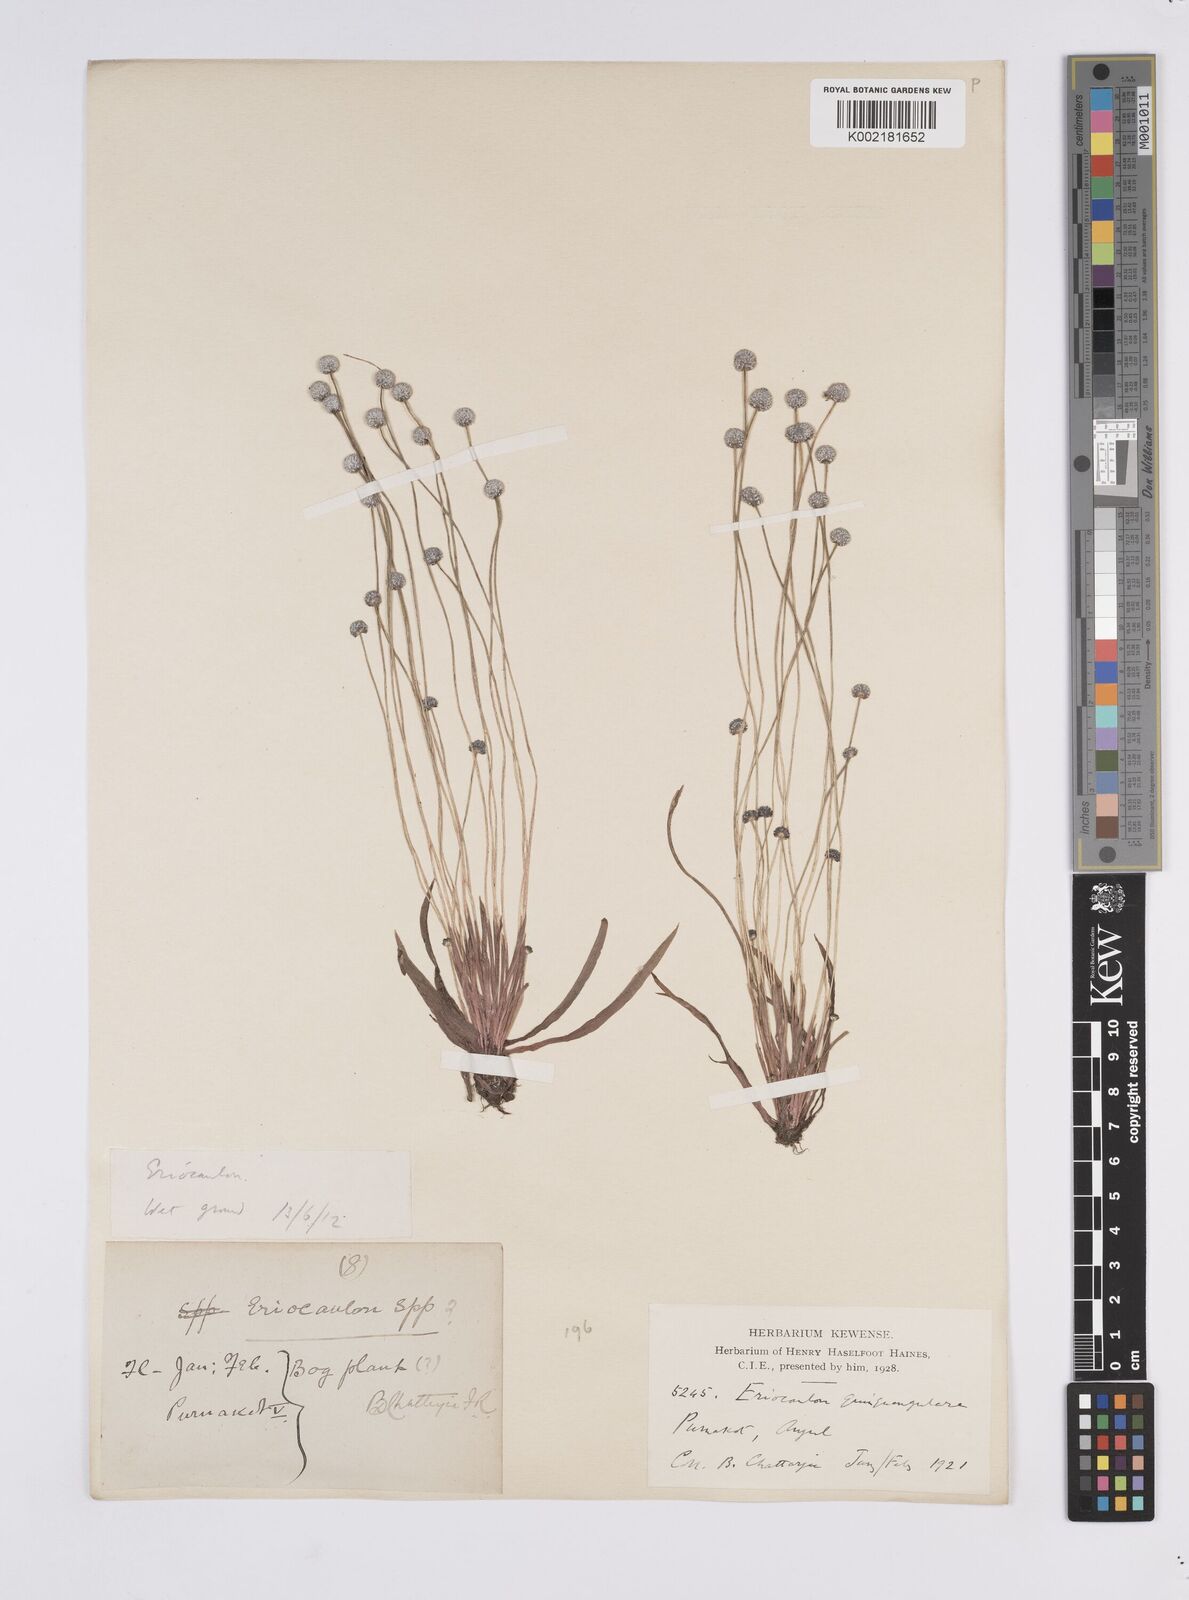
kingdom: Plantae
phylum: Tracheophyta
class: Liliopsida
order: Poales
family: Eriocaulaceae
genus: Eriocaulon
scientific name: Eriocaulon quinquangulare
